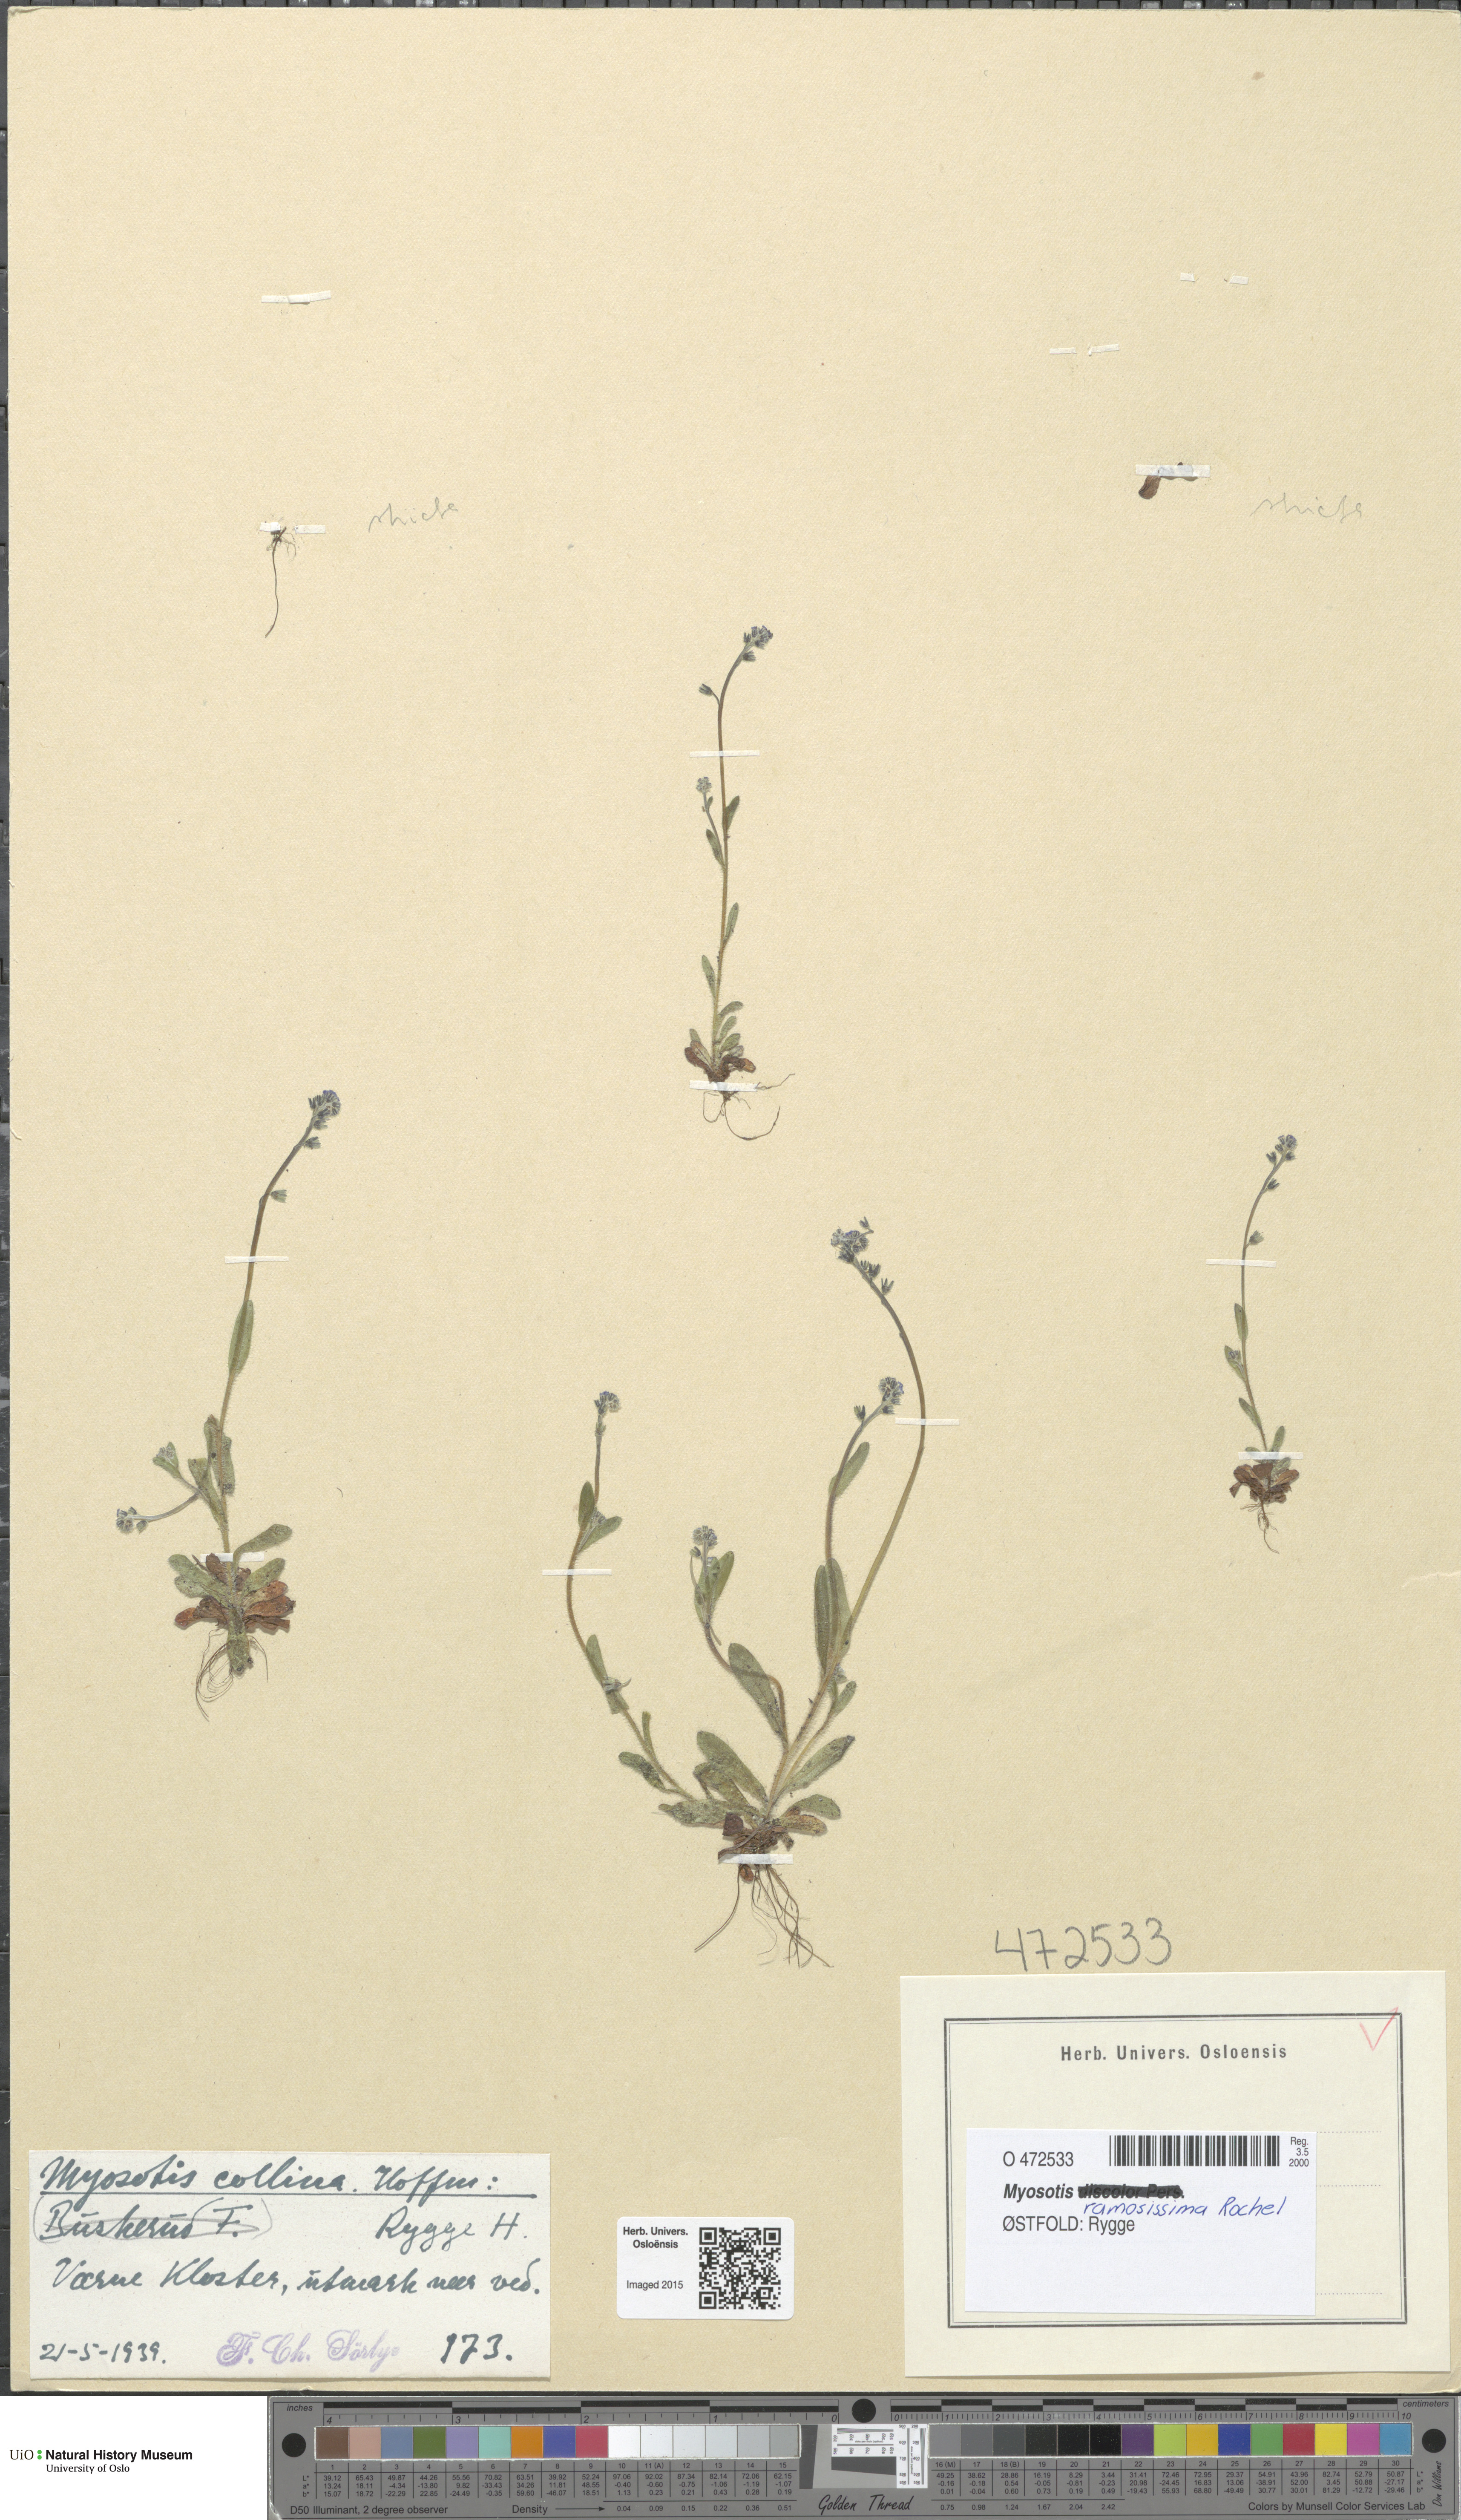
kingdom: Plantae
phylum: Tracheophyta
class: Magnoliopsida
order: Boraginales
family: Boraginaceae
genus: Myosotis
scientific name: Myosotis ramosissima
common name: Early forget-me-not
